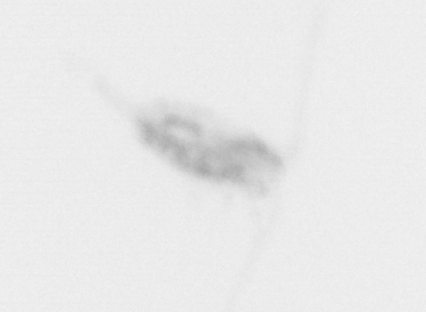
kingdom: Animalia
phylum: Arthropoda
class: Copepoda
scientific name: Copepoda
